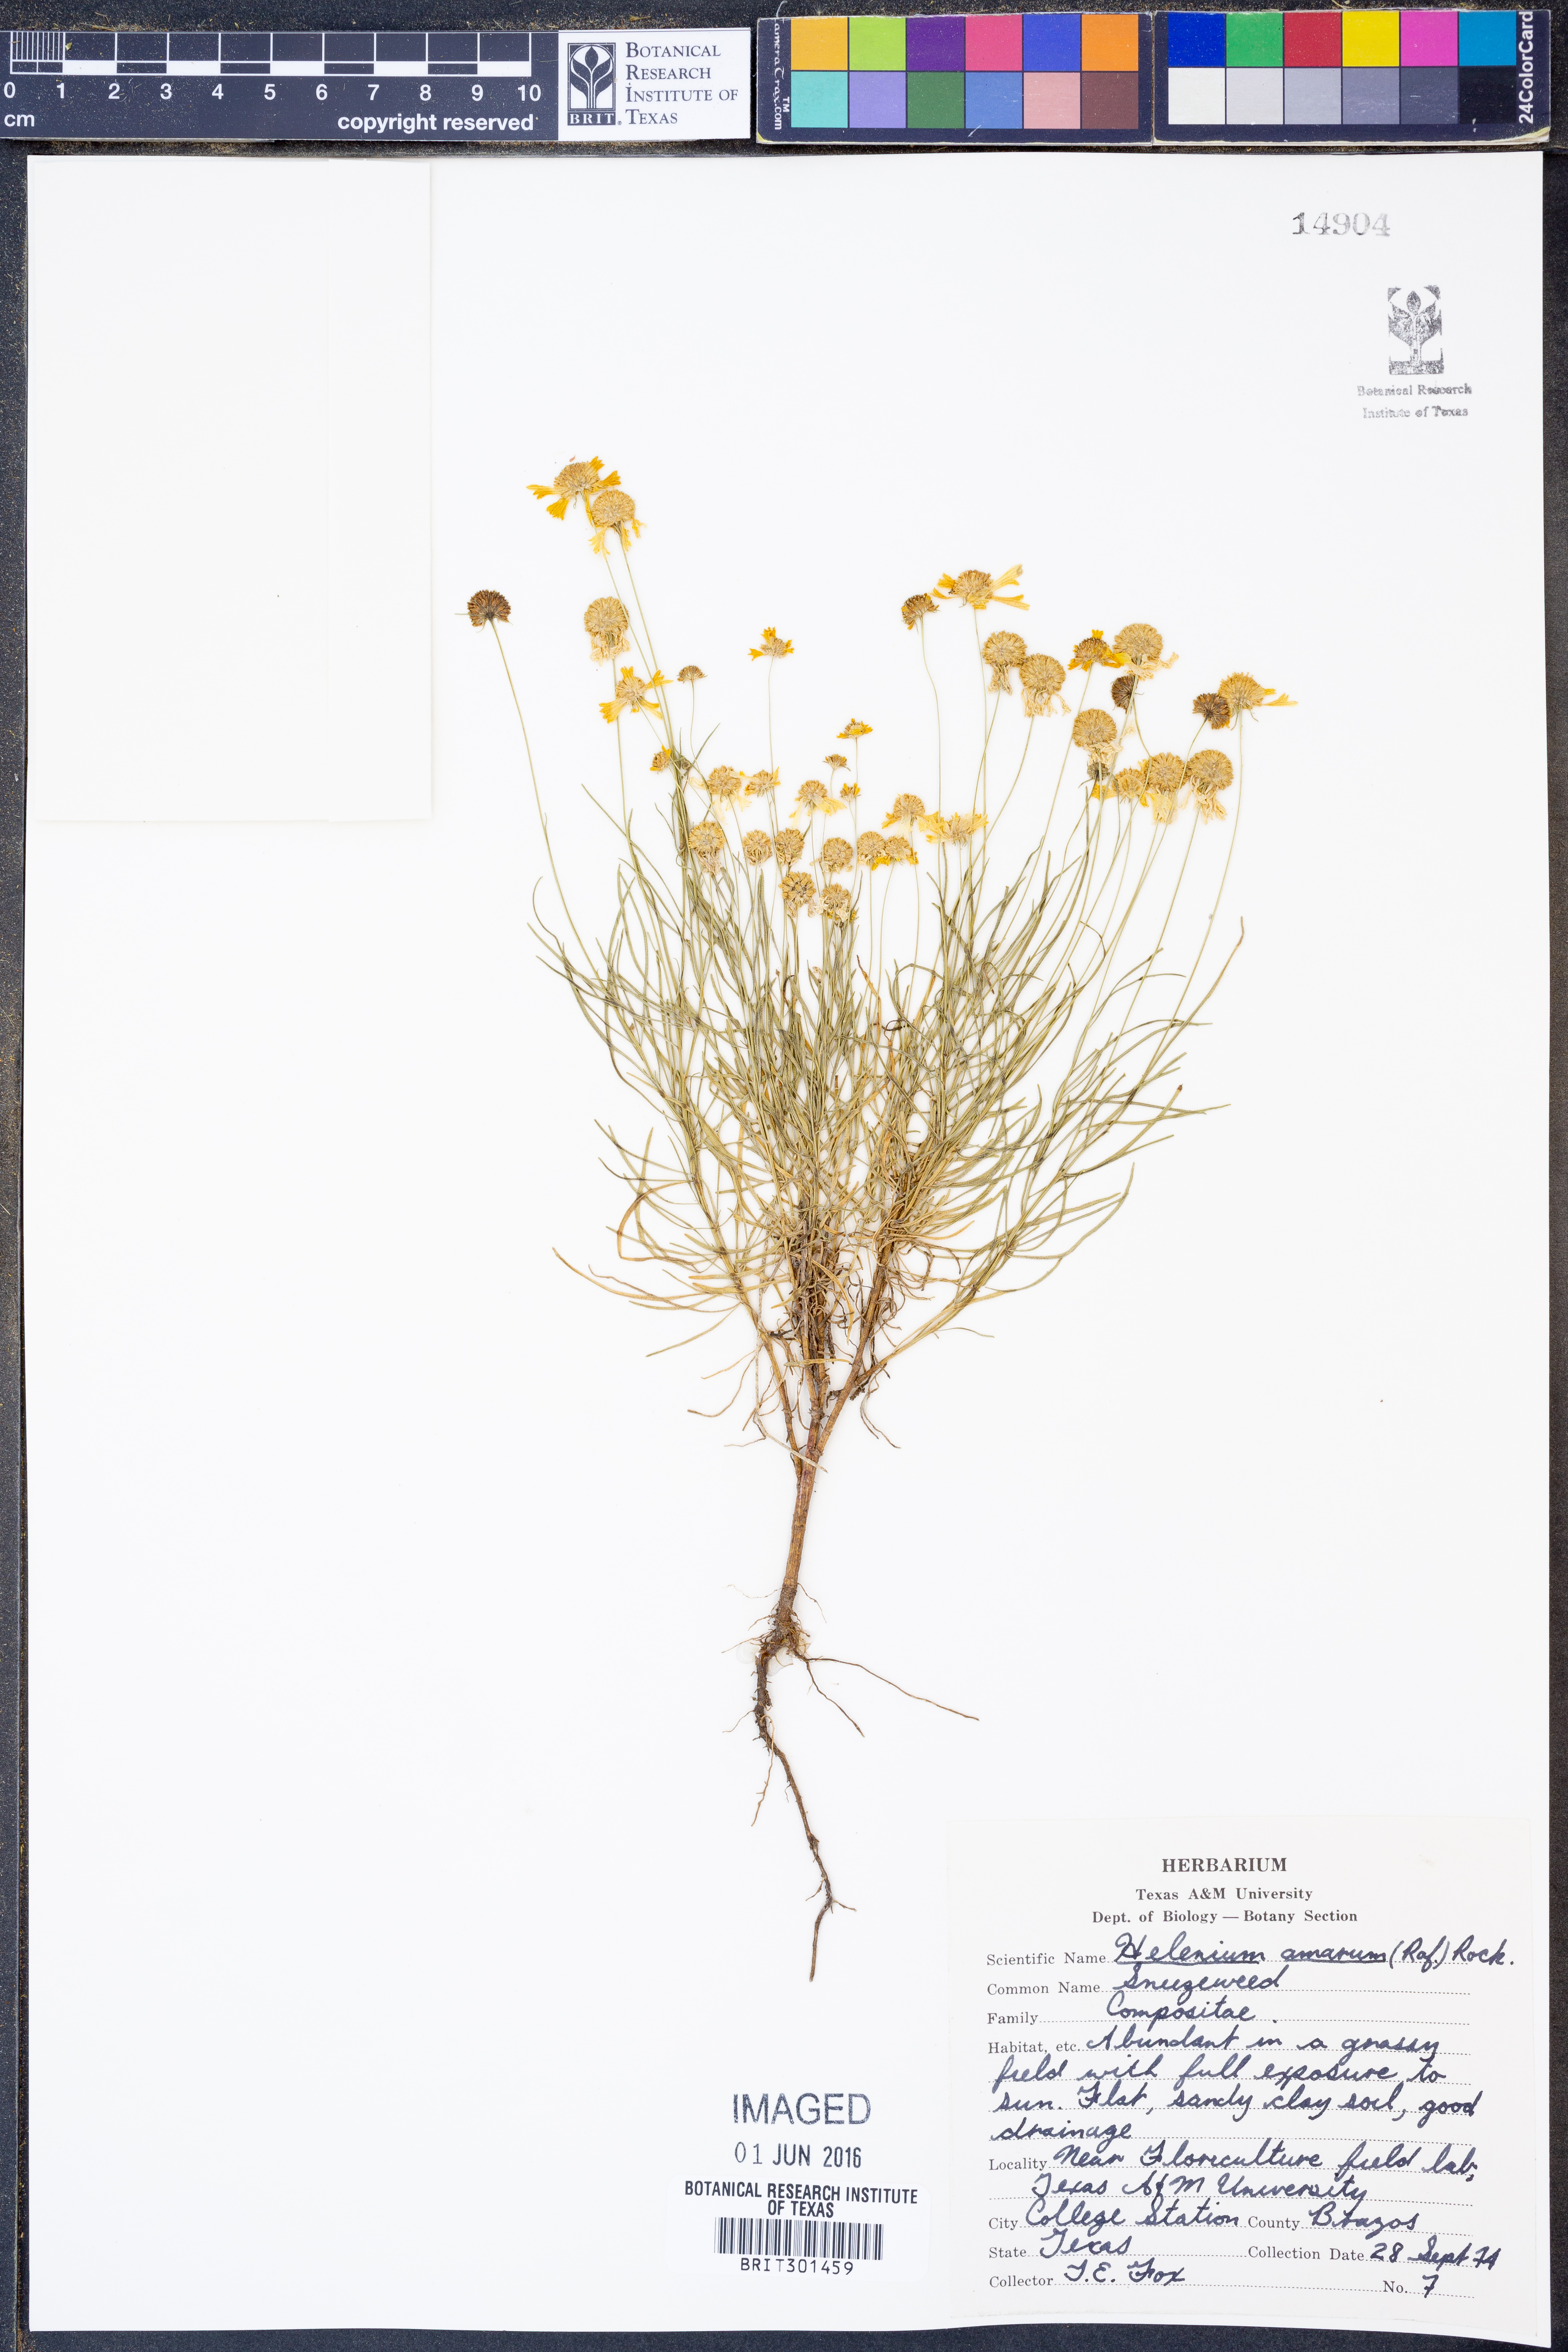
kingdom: Plantae
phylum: Tracheophyta
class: Magnoliopsida
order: Asterales
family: Asteraceae
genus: Helenium
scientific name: Helenium amarum
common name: Bitter sneezeweed
